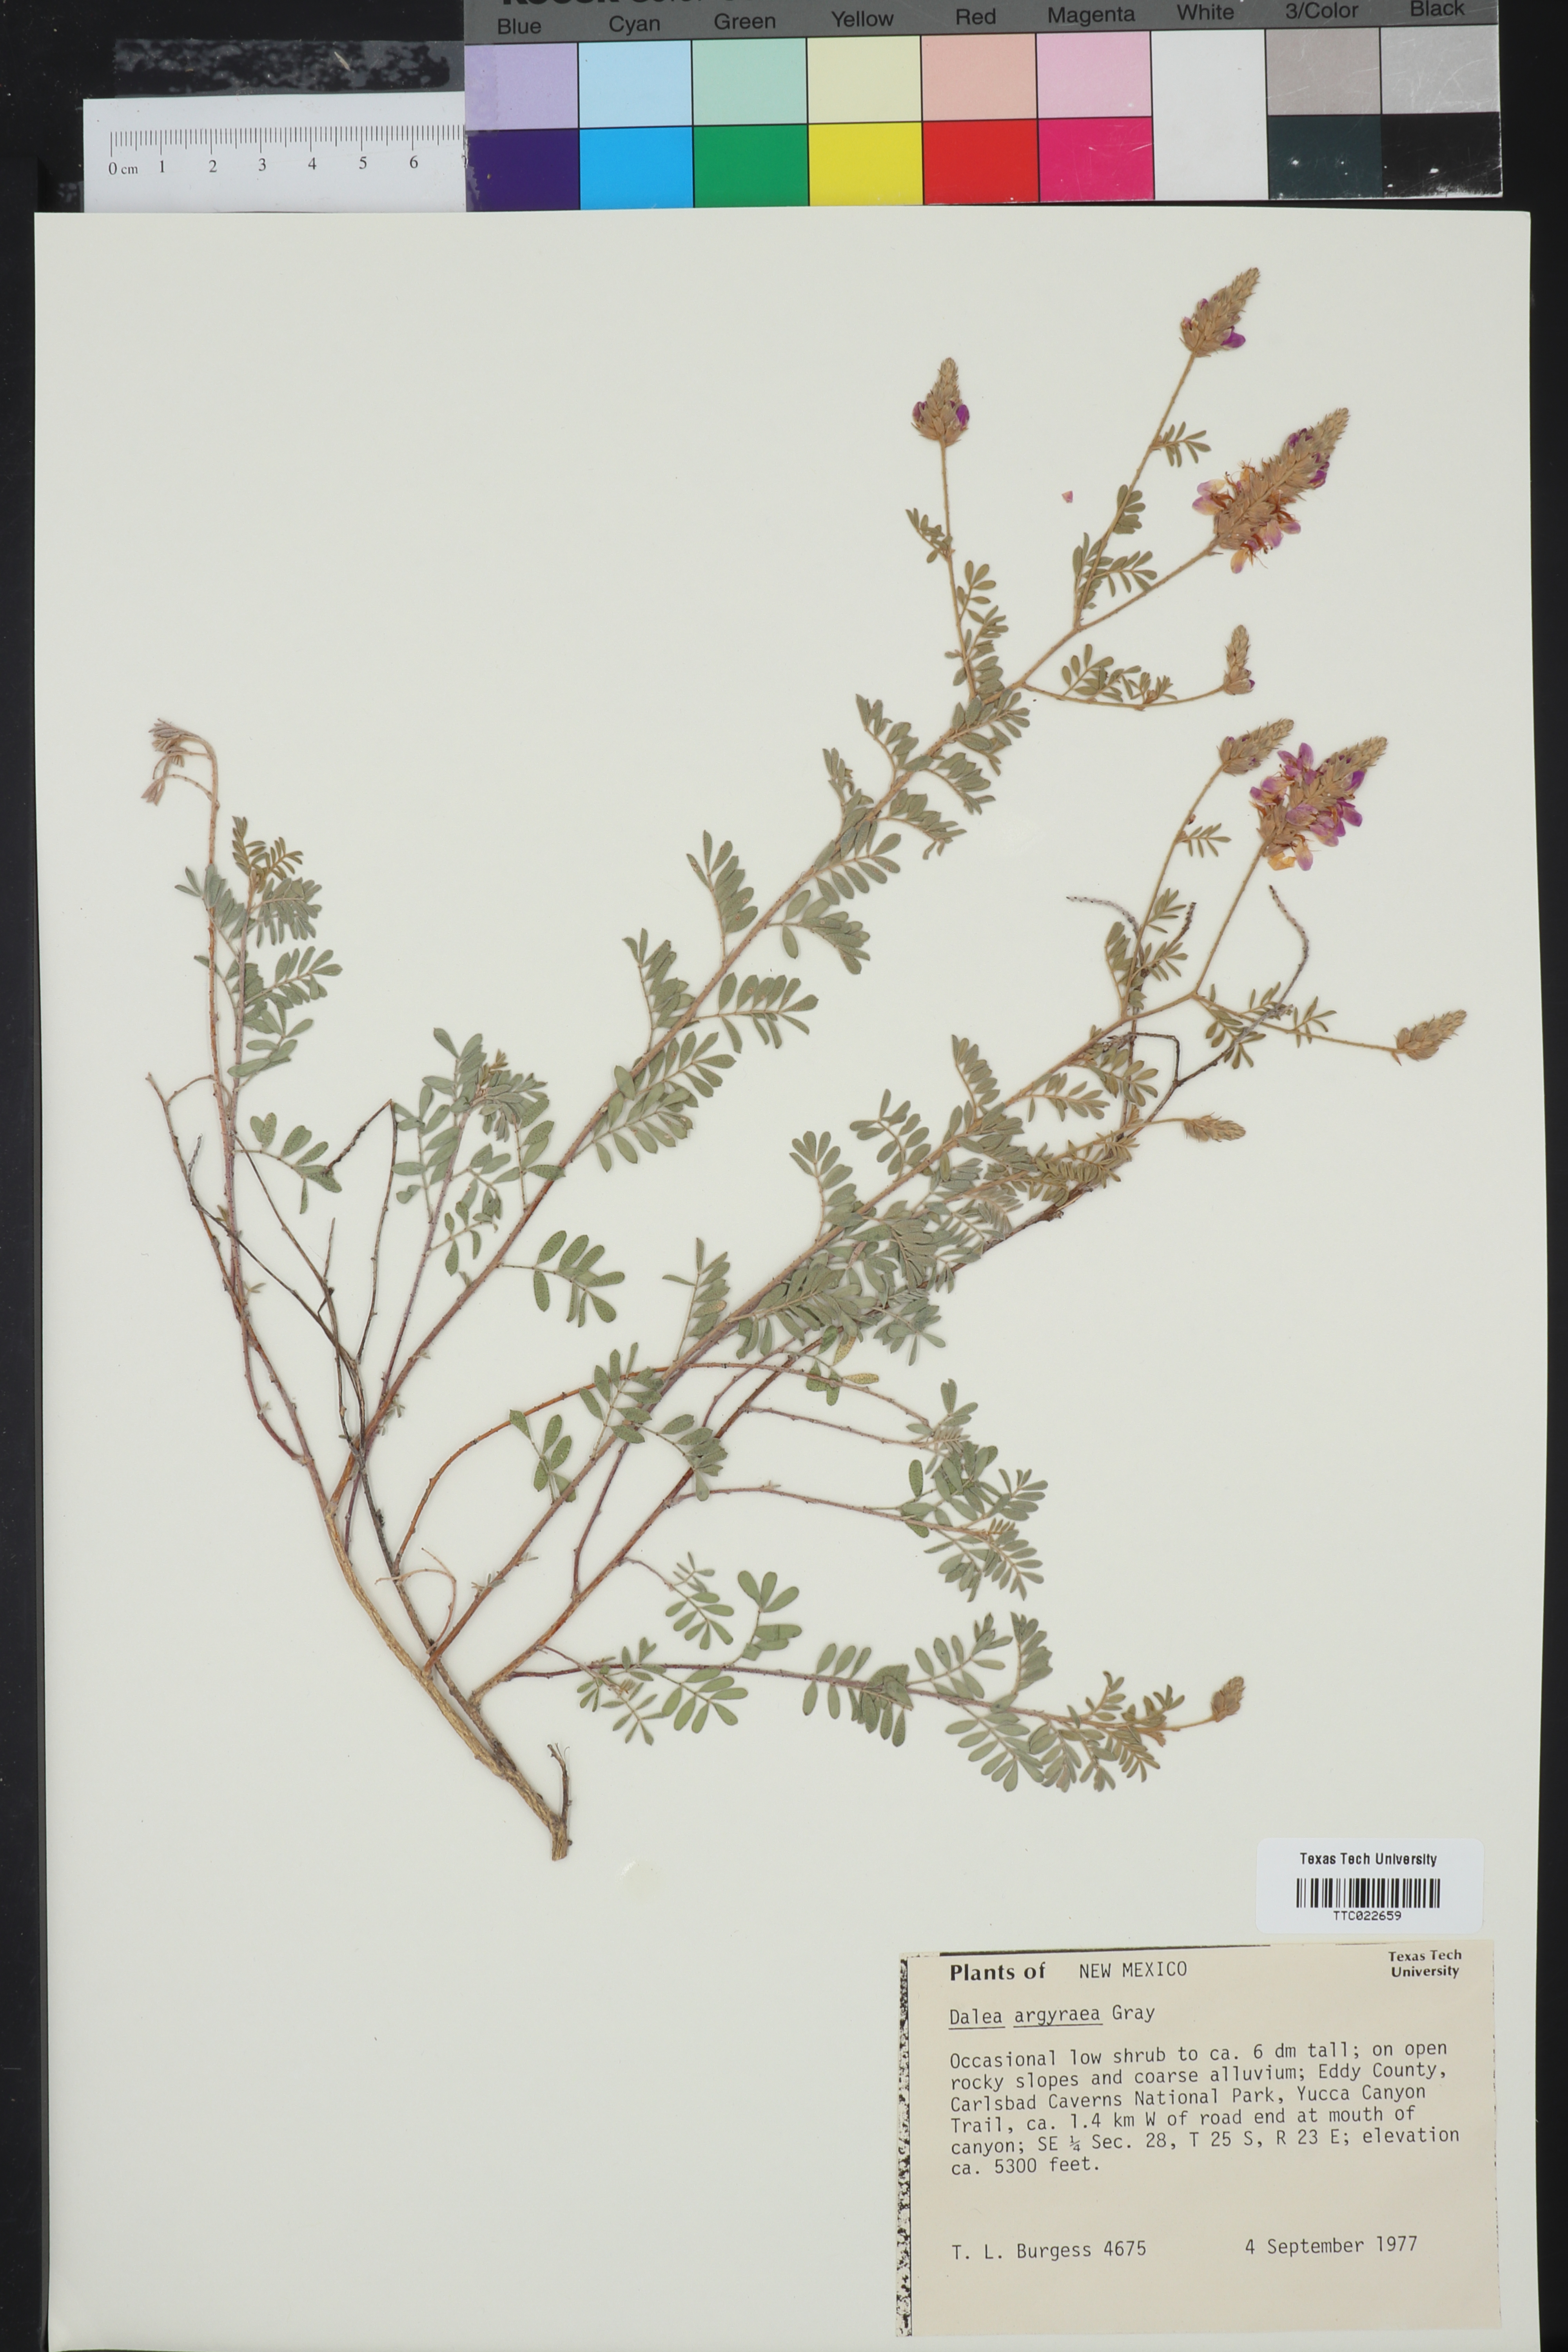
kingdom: Plantae
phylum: Tracheophyta
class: Magnoliopsida
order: Fabales
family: Fabaceae
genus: Dalea
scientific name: Dalea bicolor
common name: Silver prairie-clover
